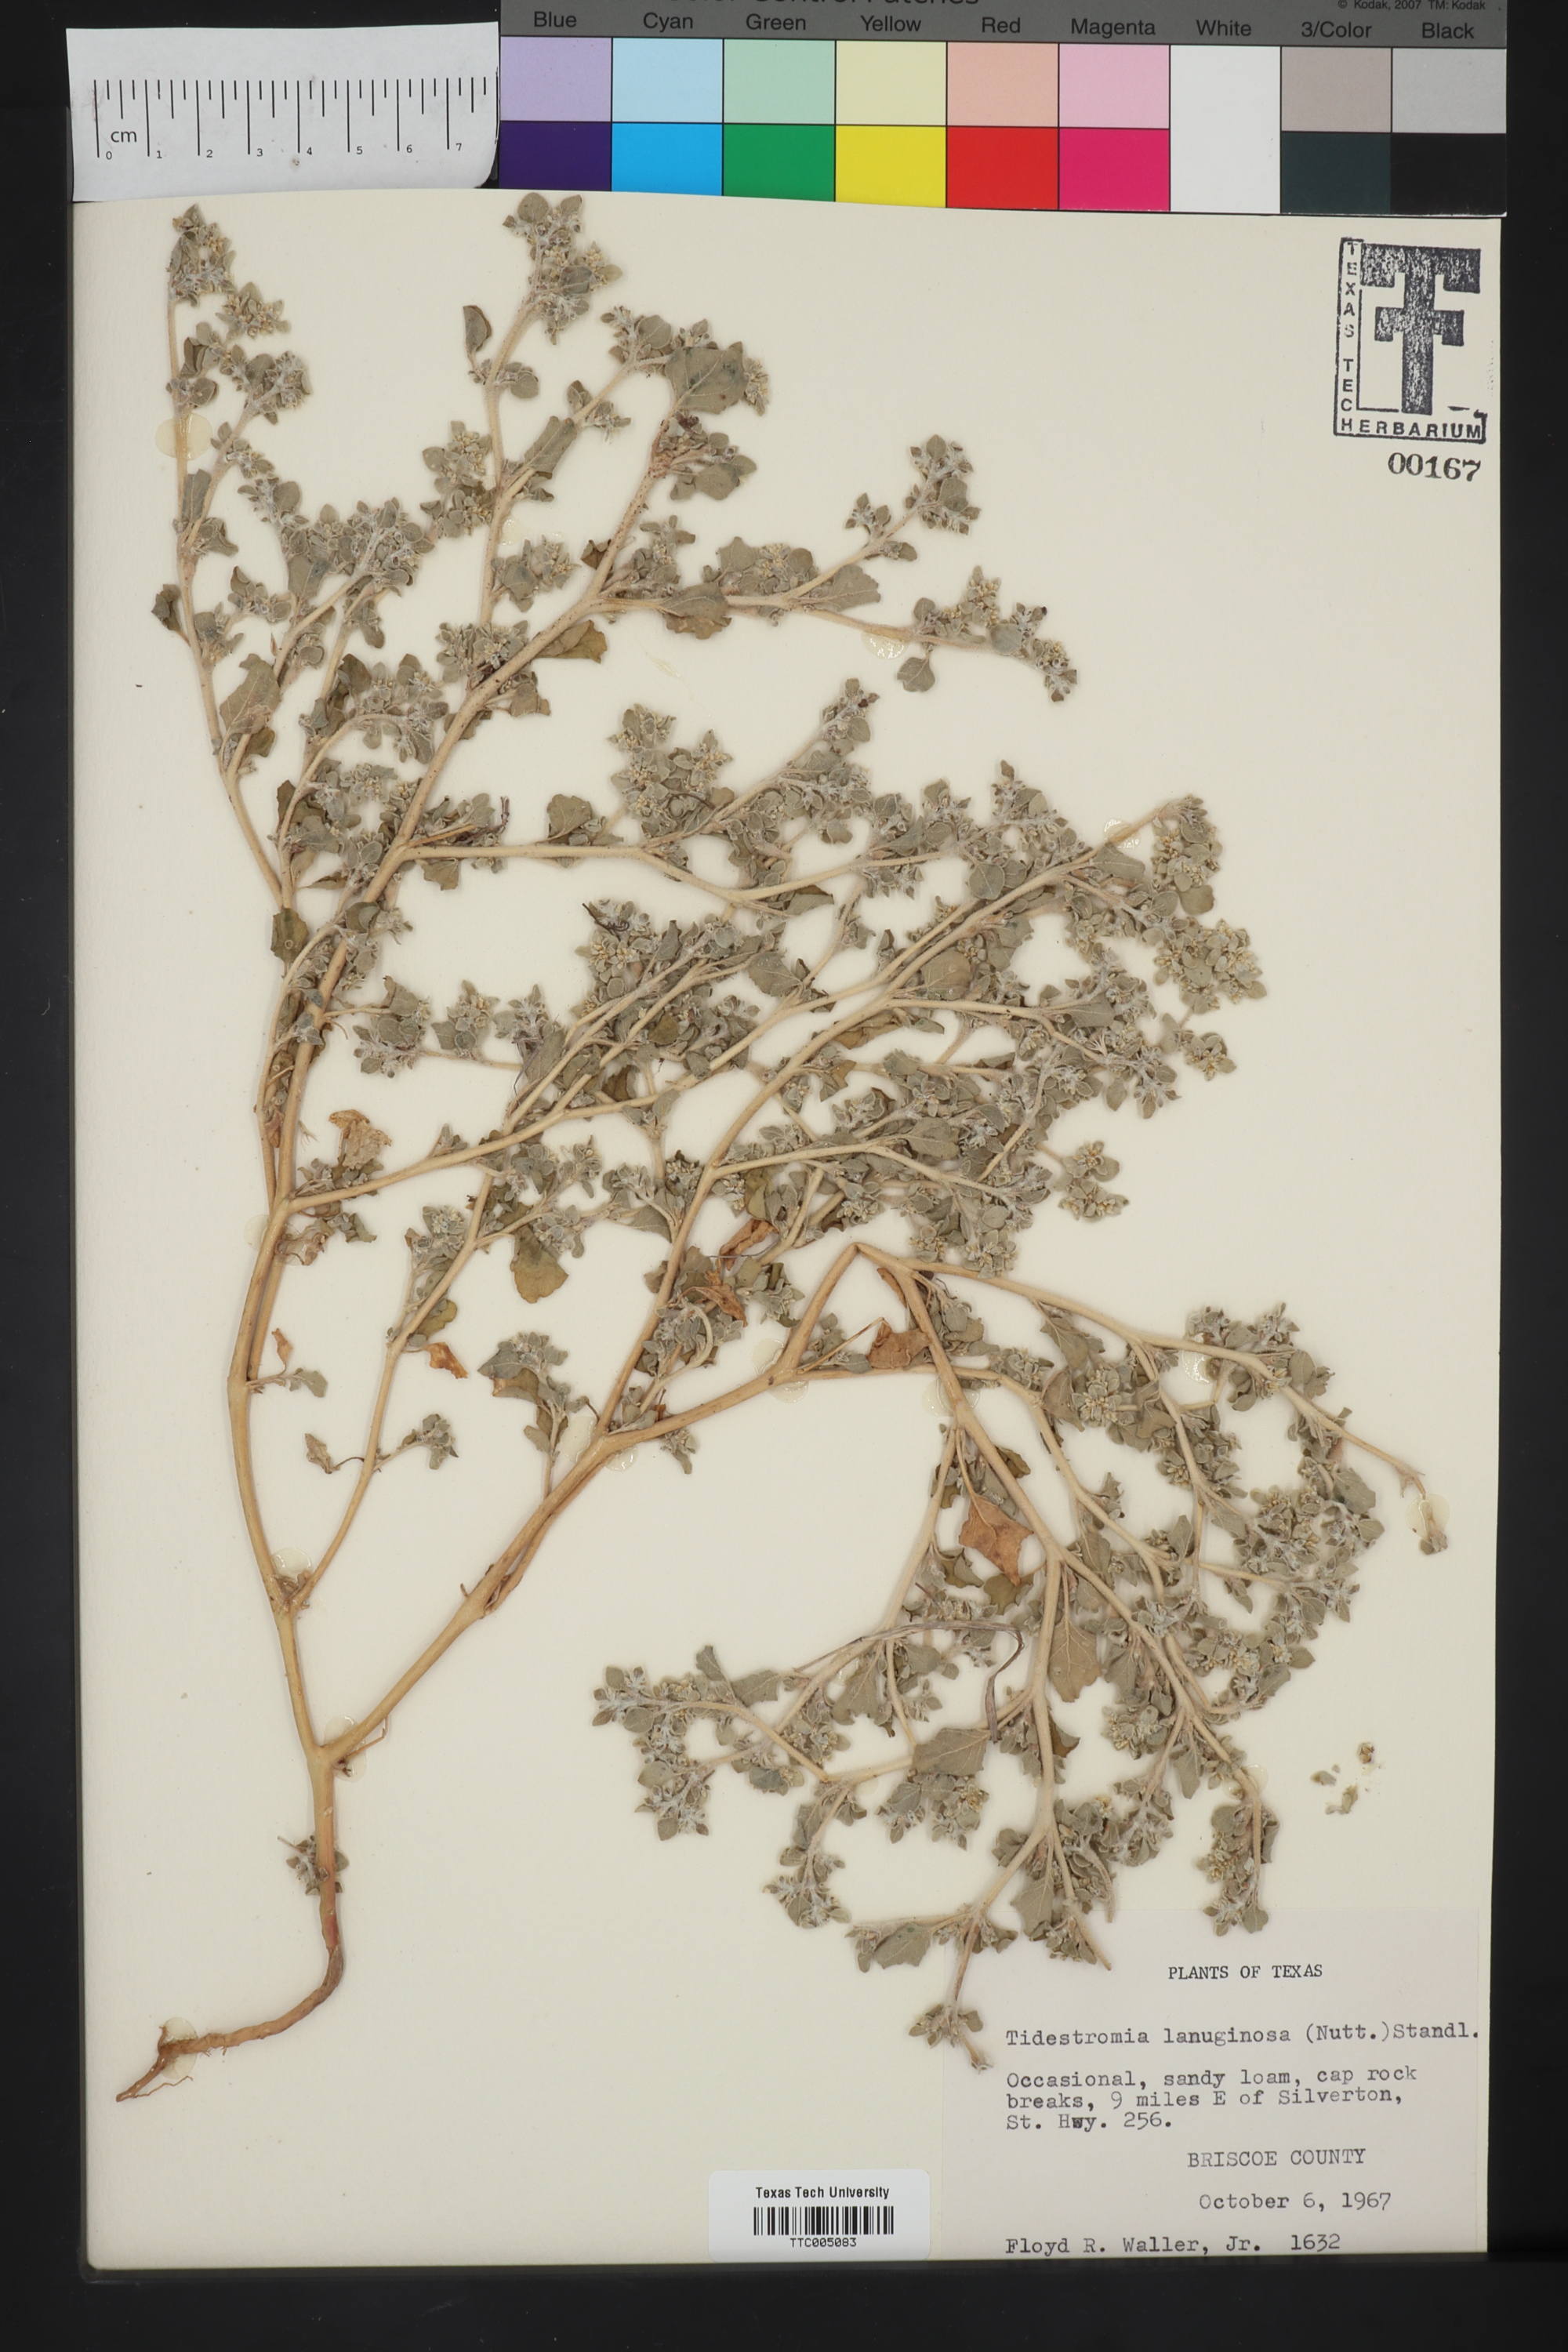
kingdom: Plantae
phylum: Tracheophyta
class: Magnoliopsida
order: Caryophyllales
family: Amaranthaceae
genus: Tidestromia
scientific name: Tidestromia lanuginosa
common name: Woolly tidestromia
